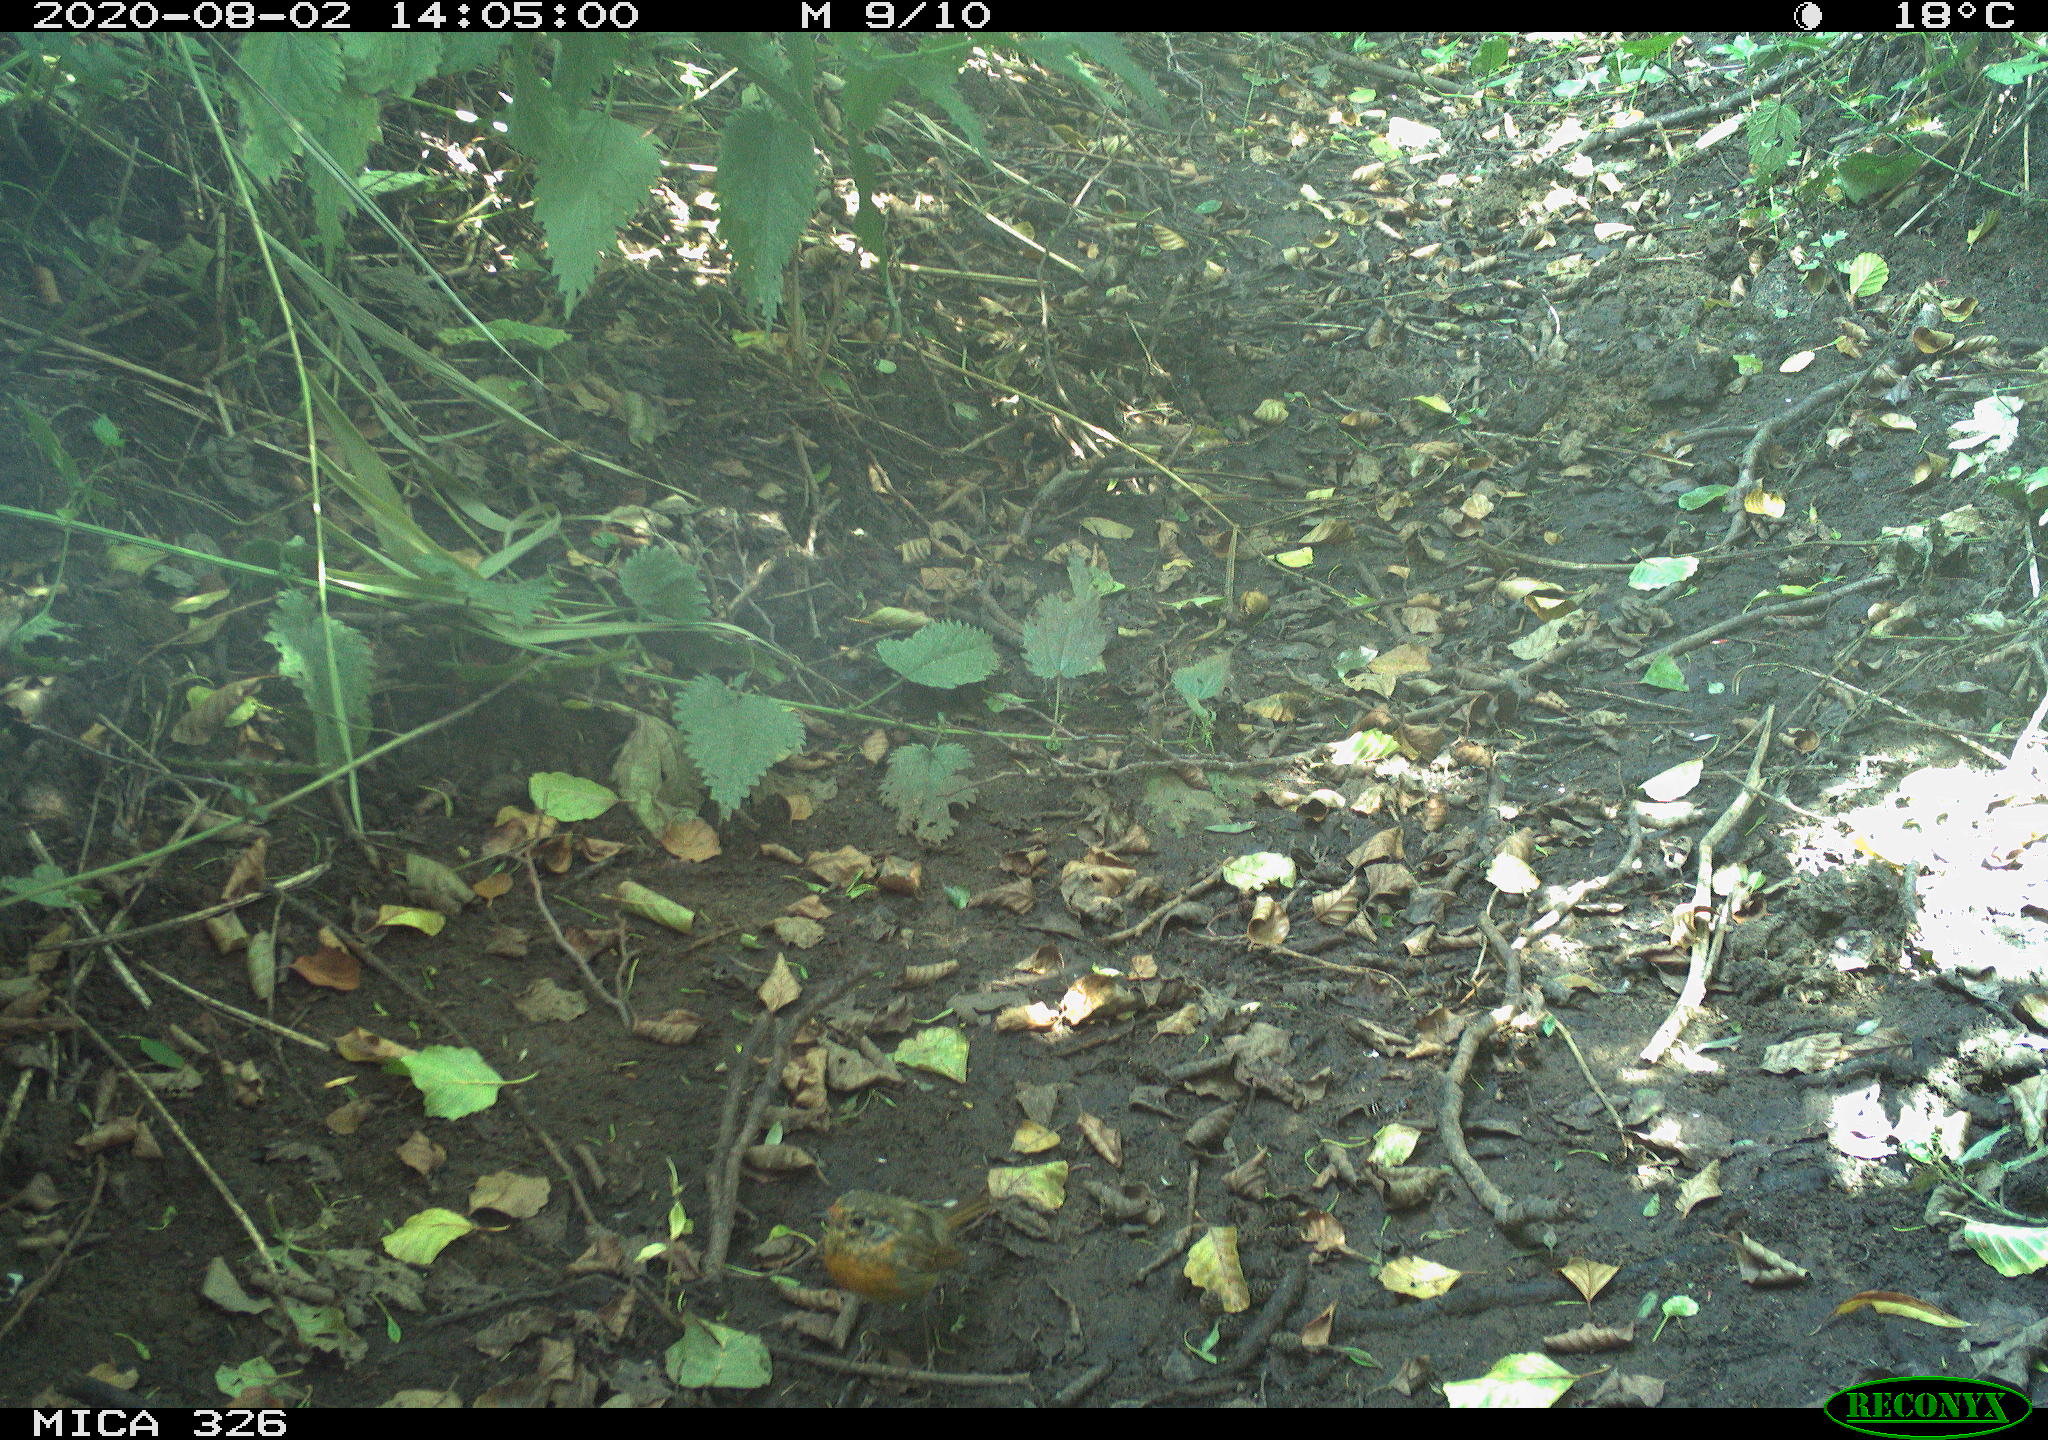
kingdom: Animalia
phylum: Chordata
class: Aves
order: Passeriformes
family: Muscicapidae
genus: Erithacus
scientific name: Erithacus rubecula
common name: European robin
